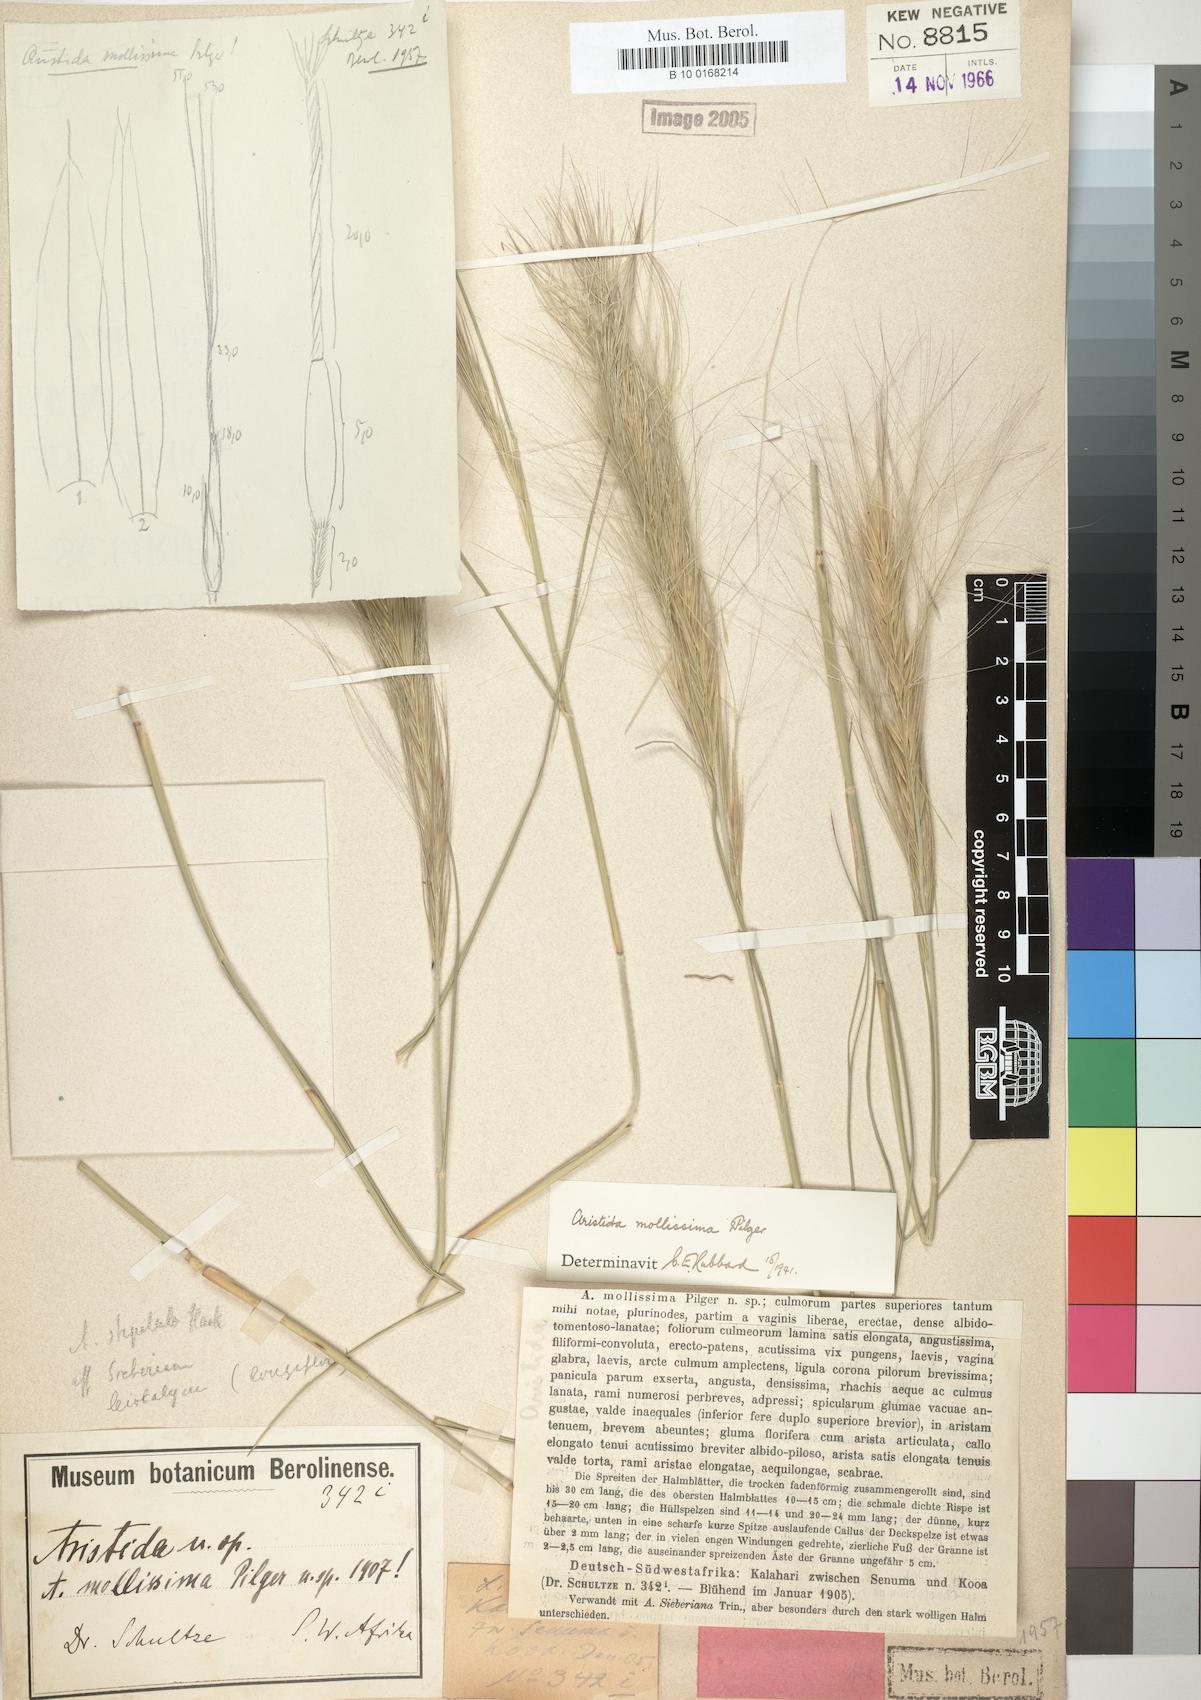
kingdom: Plantae
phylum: Tracheophyta
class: Liliopsida
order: Poales
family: Poaceae
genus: Aristida
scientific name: Aristida mollissima
